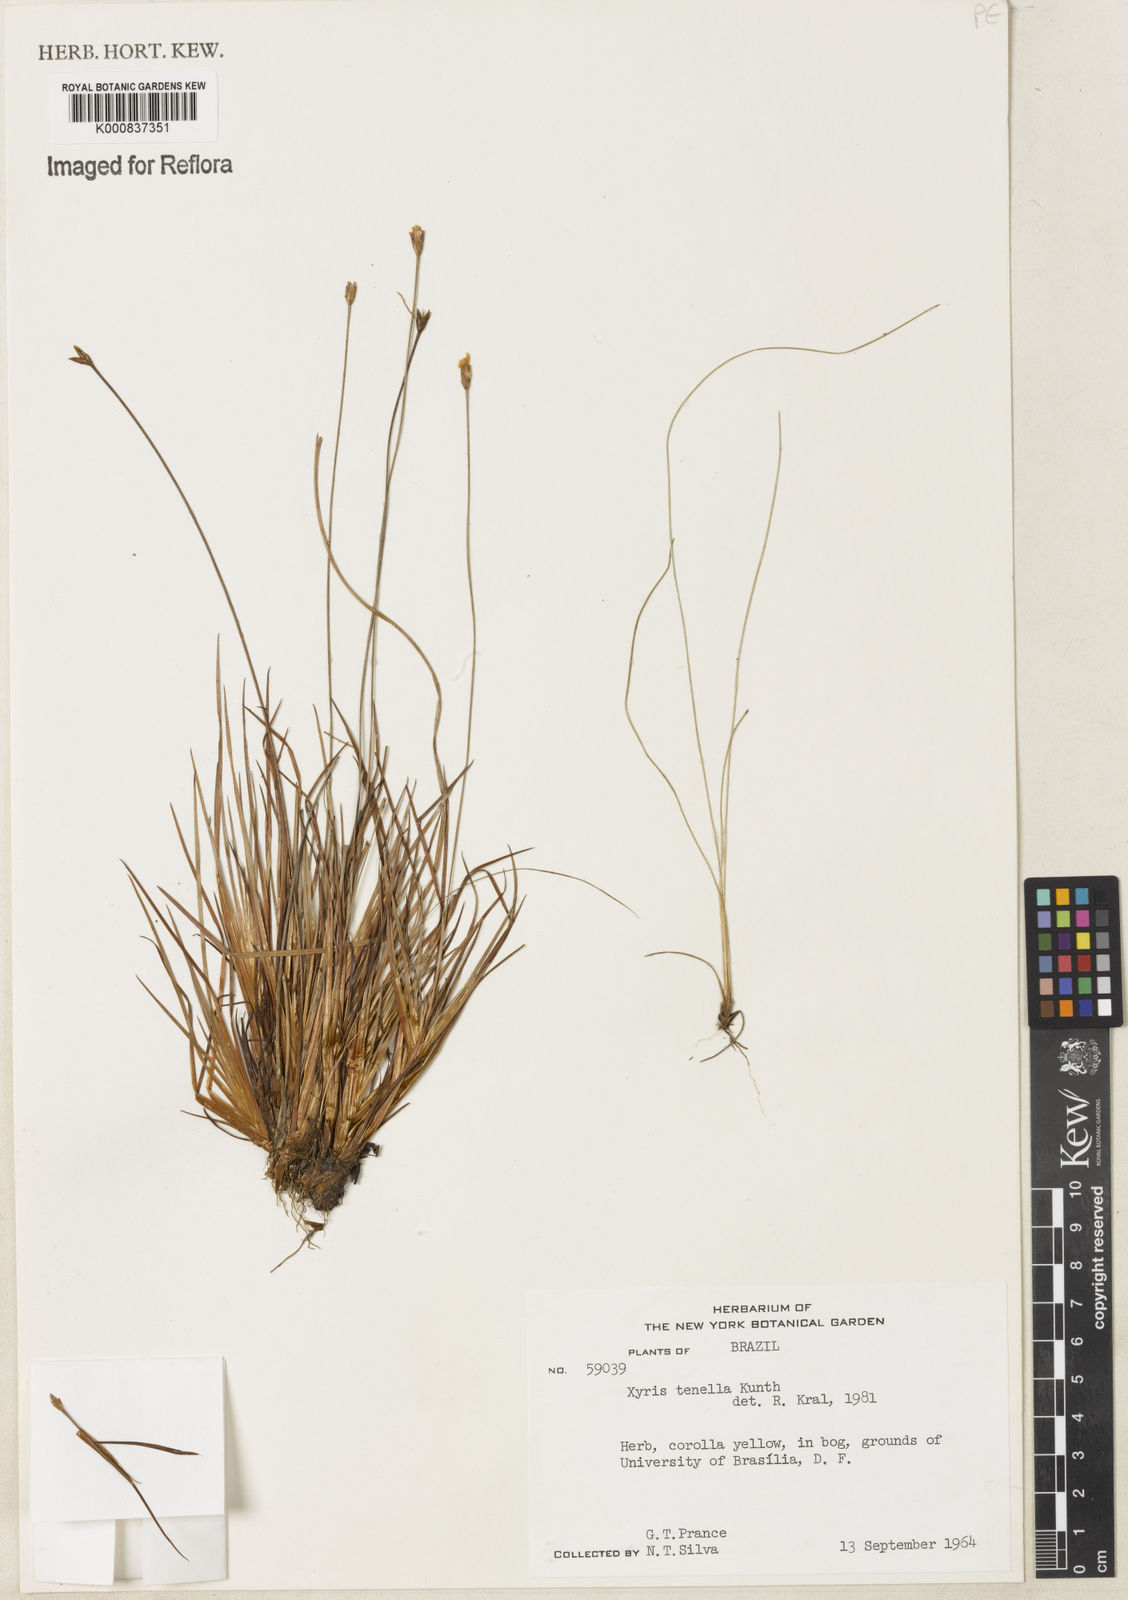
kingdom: Plantae
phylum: Tracheophyta
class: Liliopsida
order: Poales
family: Xyridaceae
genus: Xyris
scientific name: Xyris tenella
